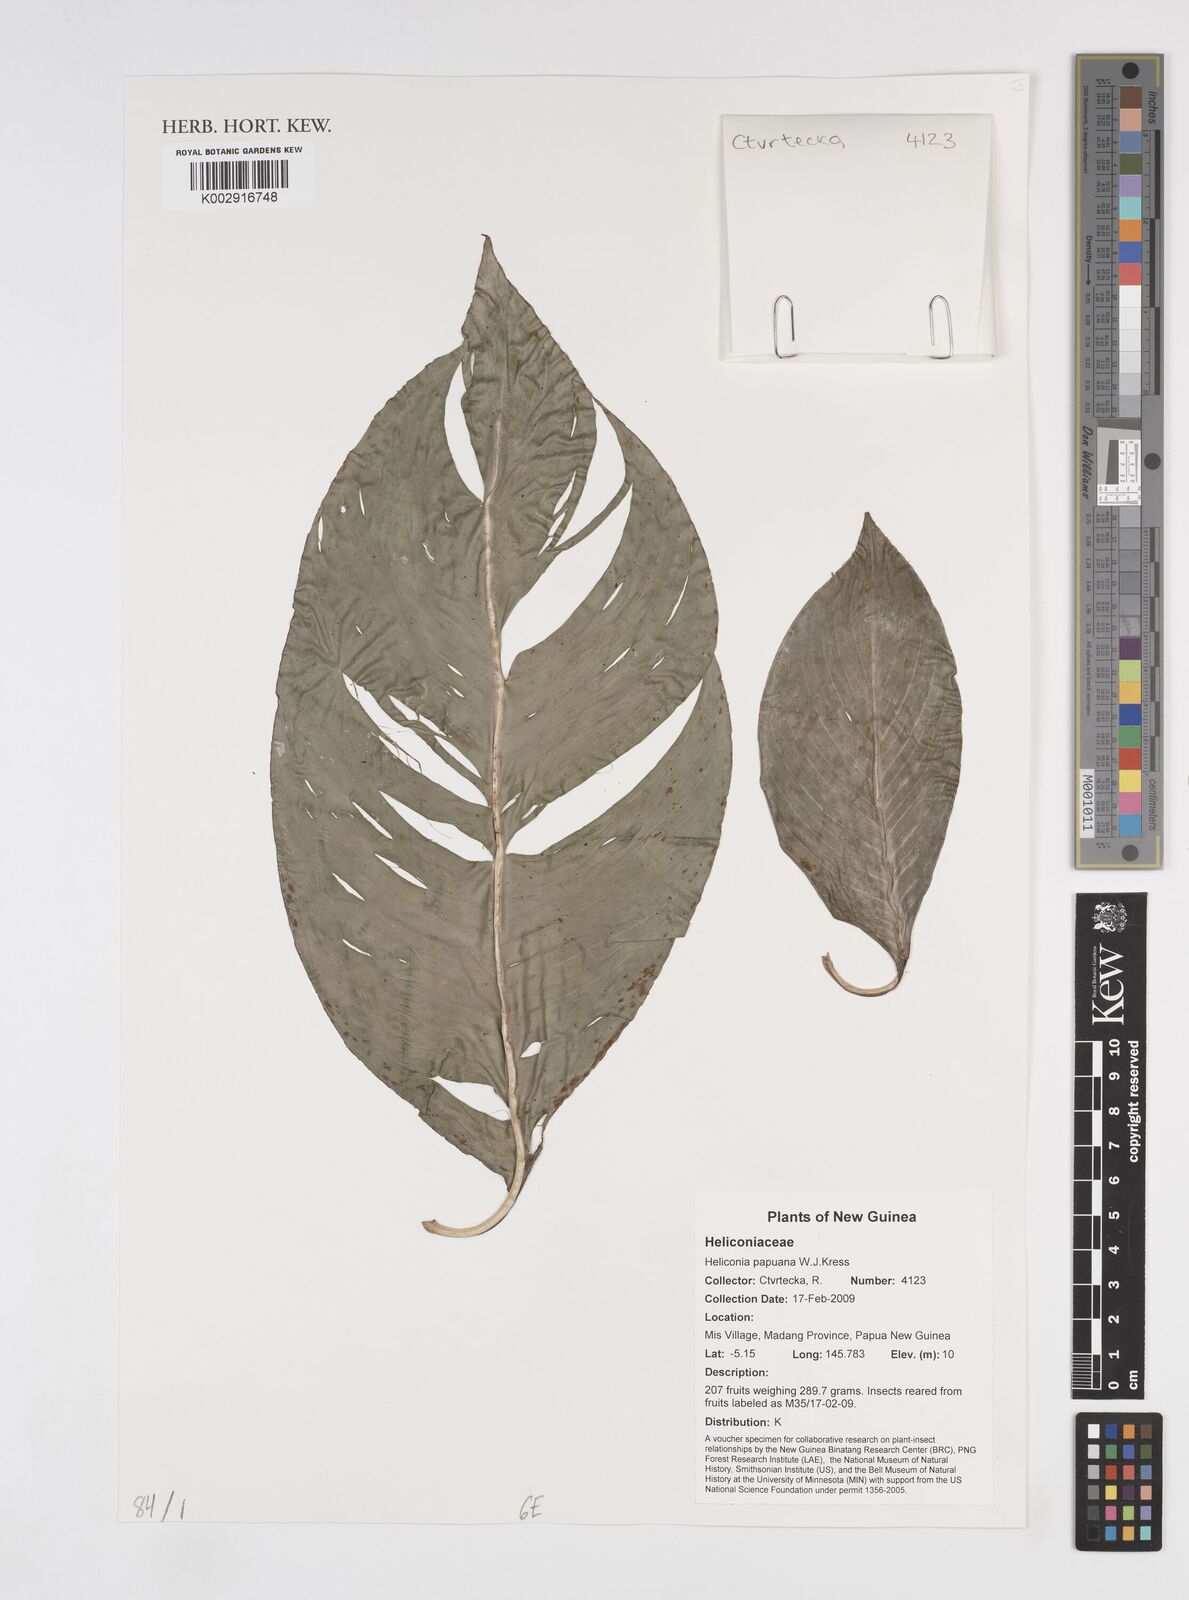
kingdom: Plantae
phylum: Tracheophyta
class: Liliopsida
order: Zingiberales
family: Heliconiaceae
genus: Heliconia
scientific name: Heliconia papuana
